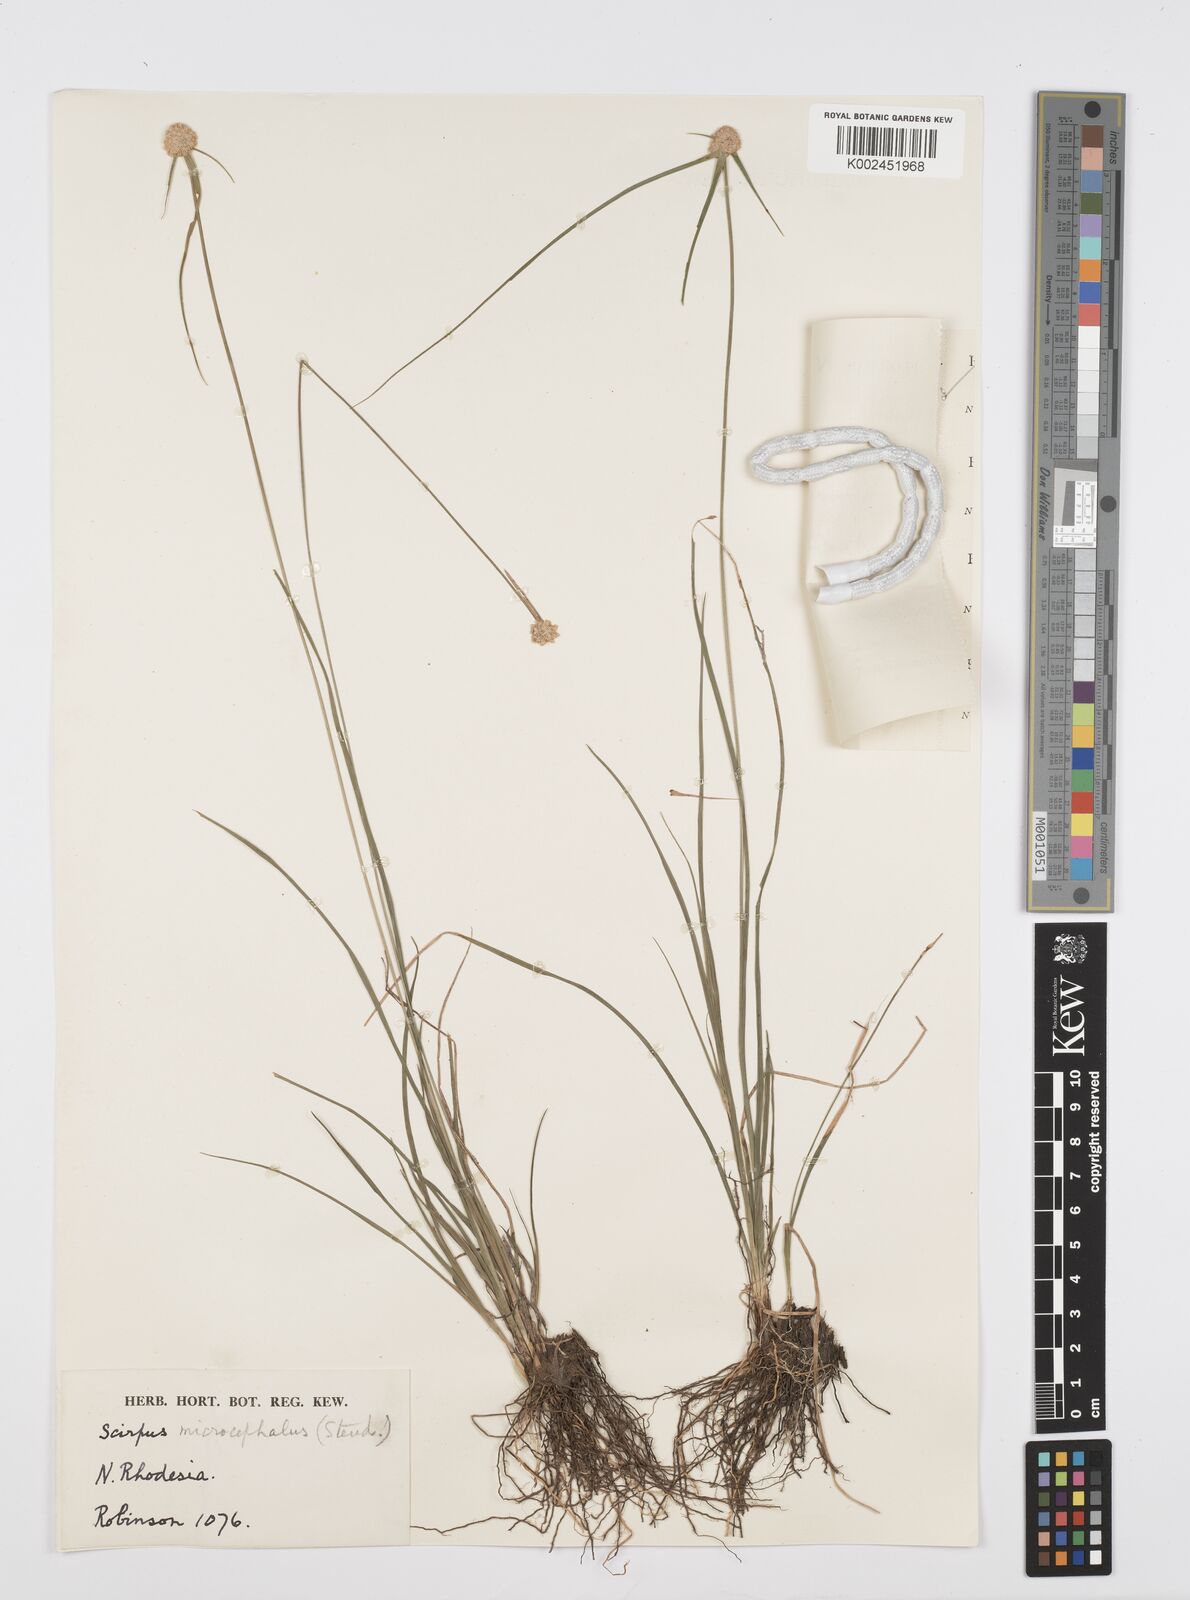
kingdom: Plantae
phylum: Tracheophyta
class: Liliopsida
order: Poales
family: Cyperaceae
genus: Cyperus
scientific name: Cyperus microcephalus
